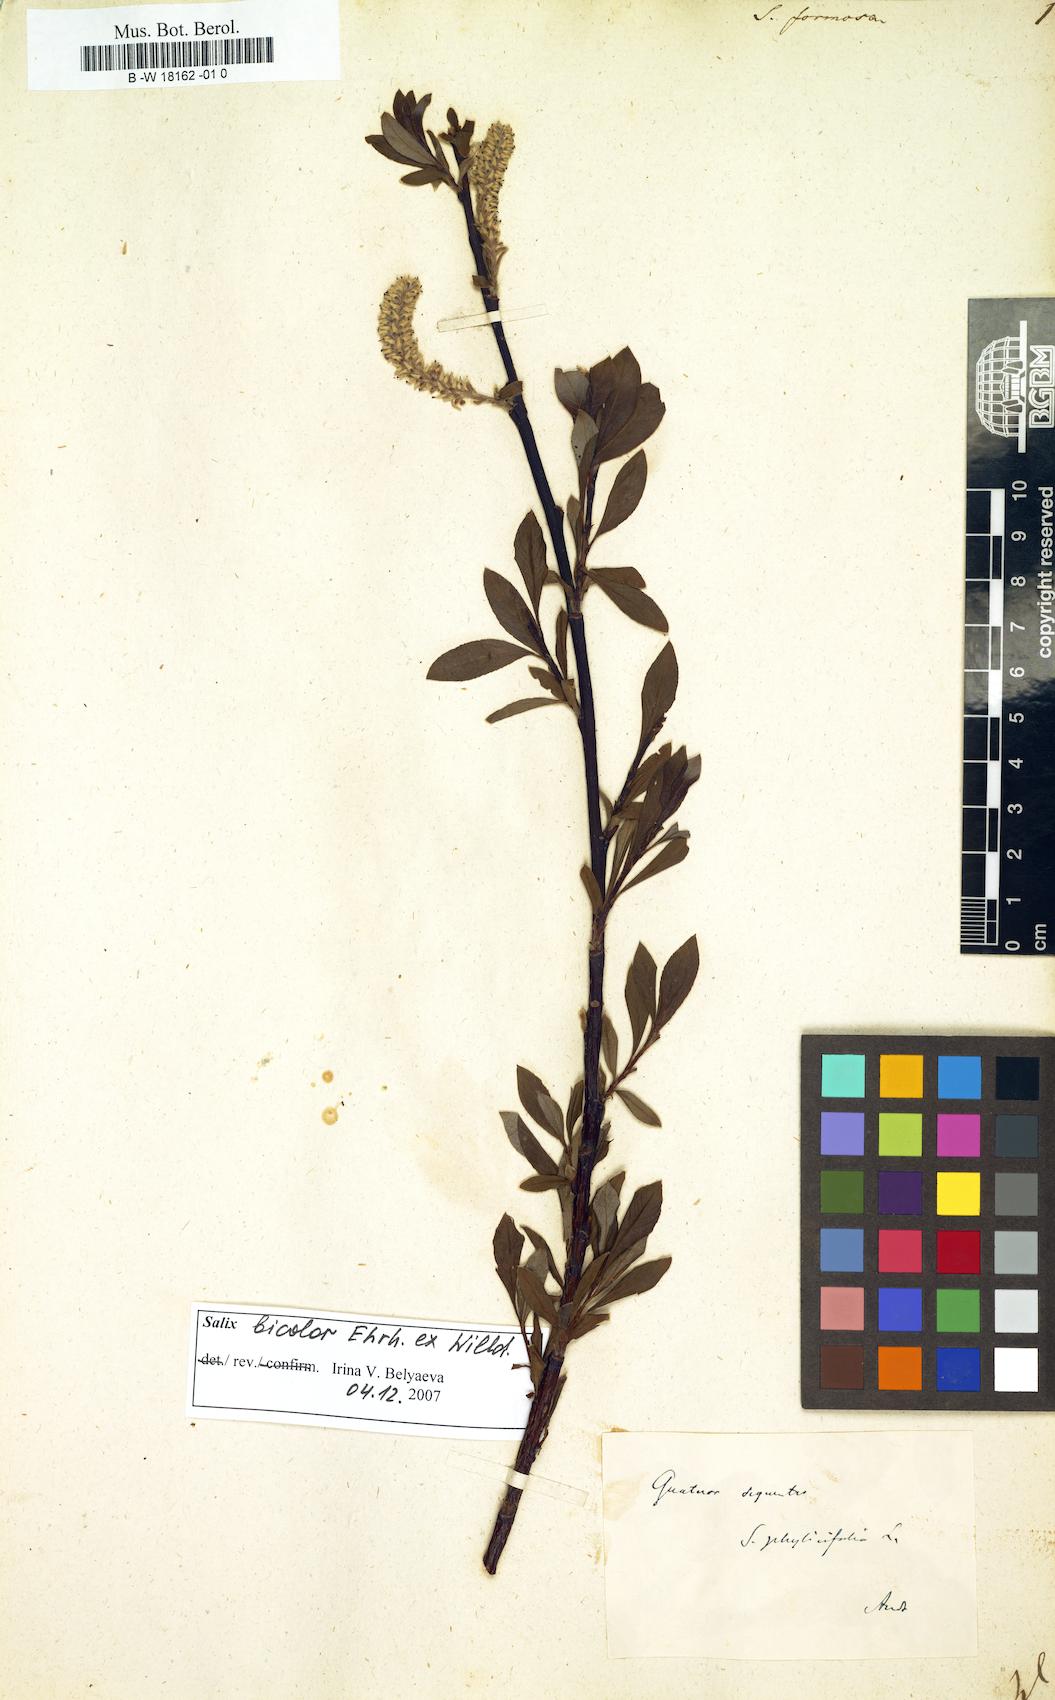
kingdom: Plantae
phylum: Tracheophyta
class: Magnoliopsida
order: Malpighiales
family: Salicaceae
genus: Salix
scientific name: Salix foetida
